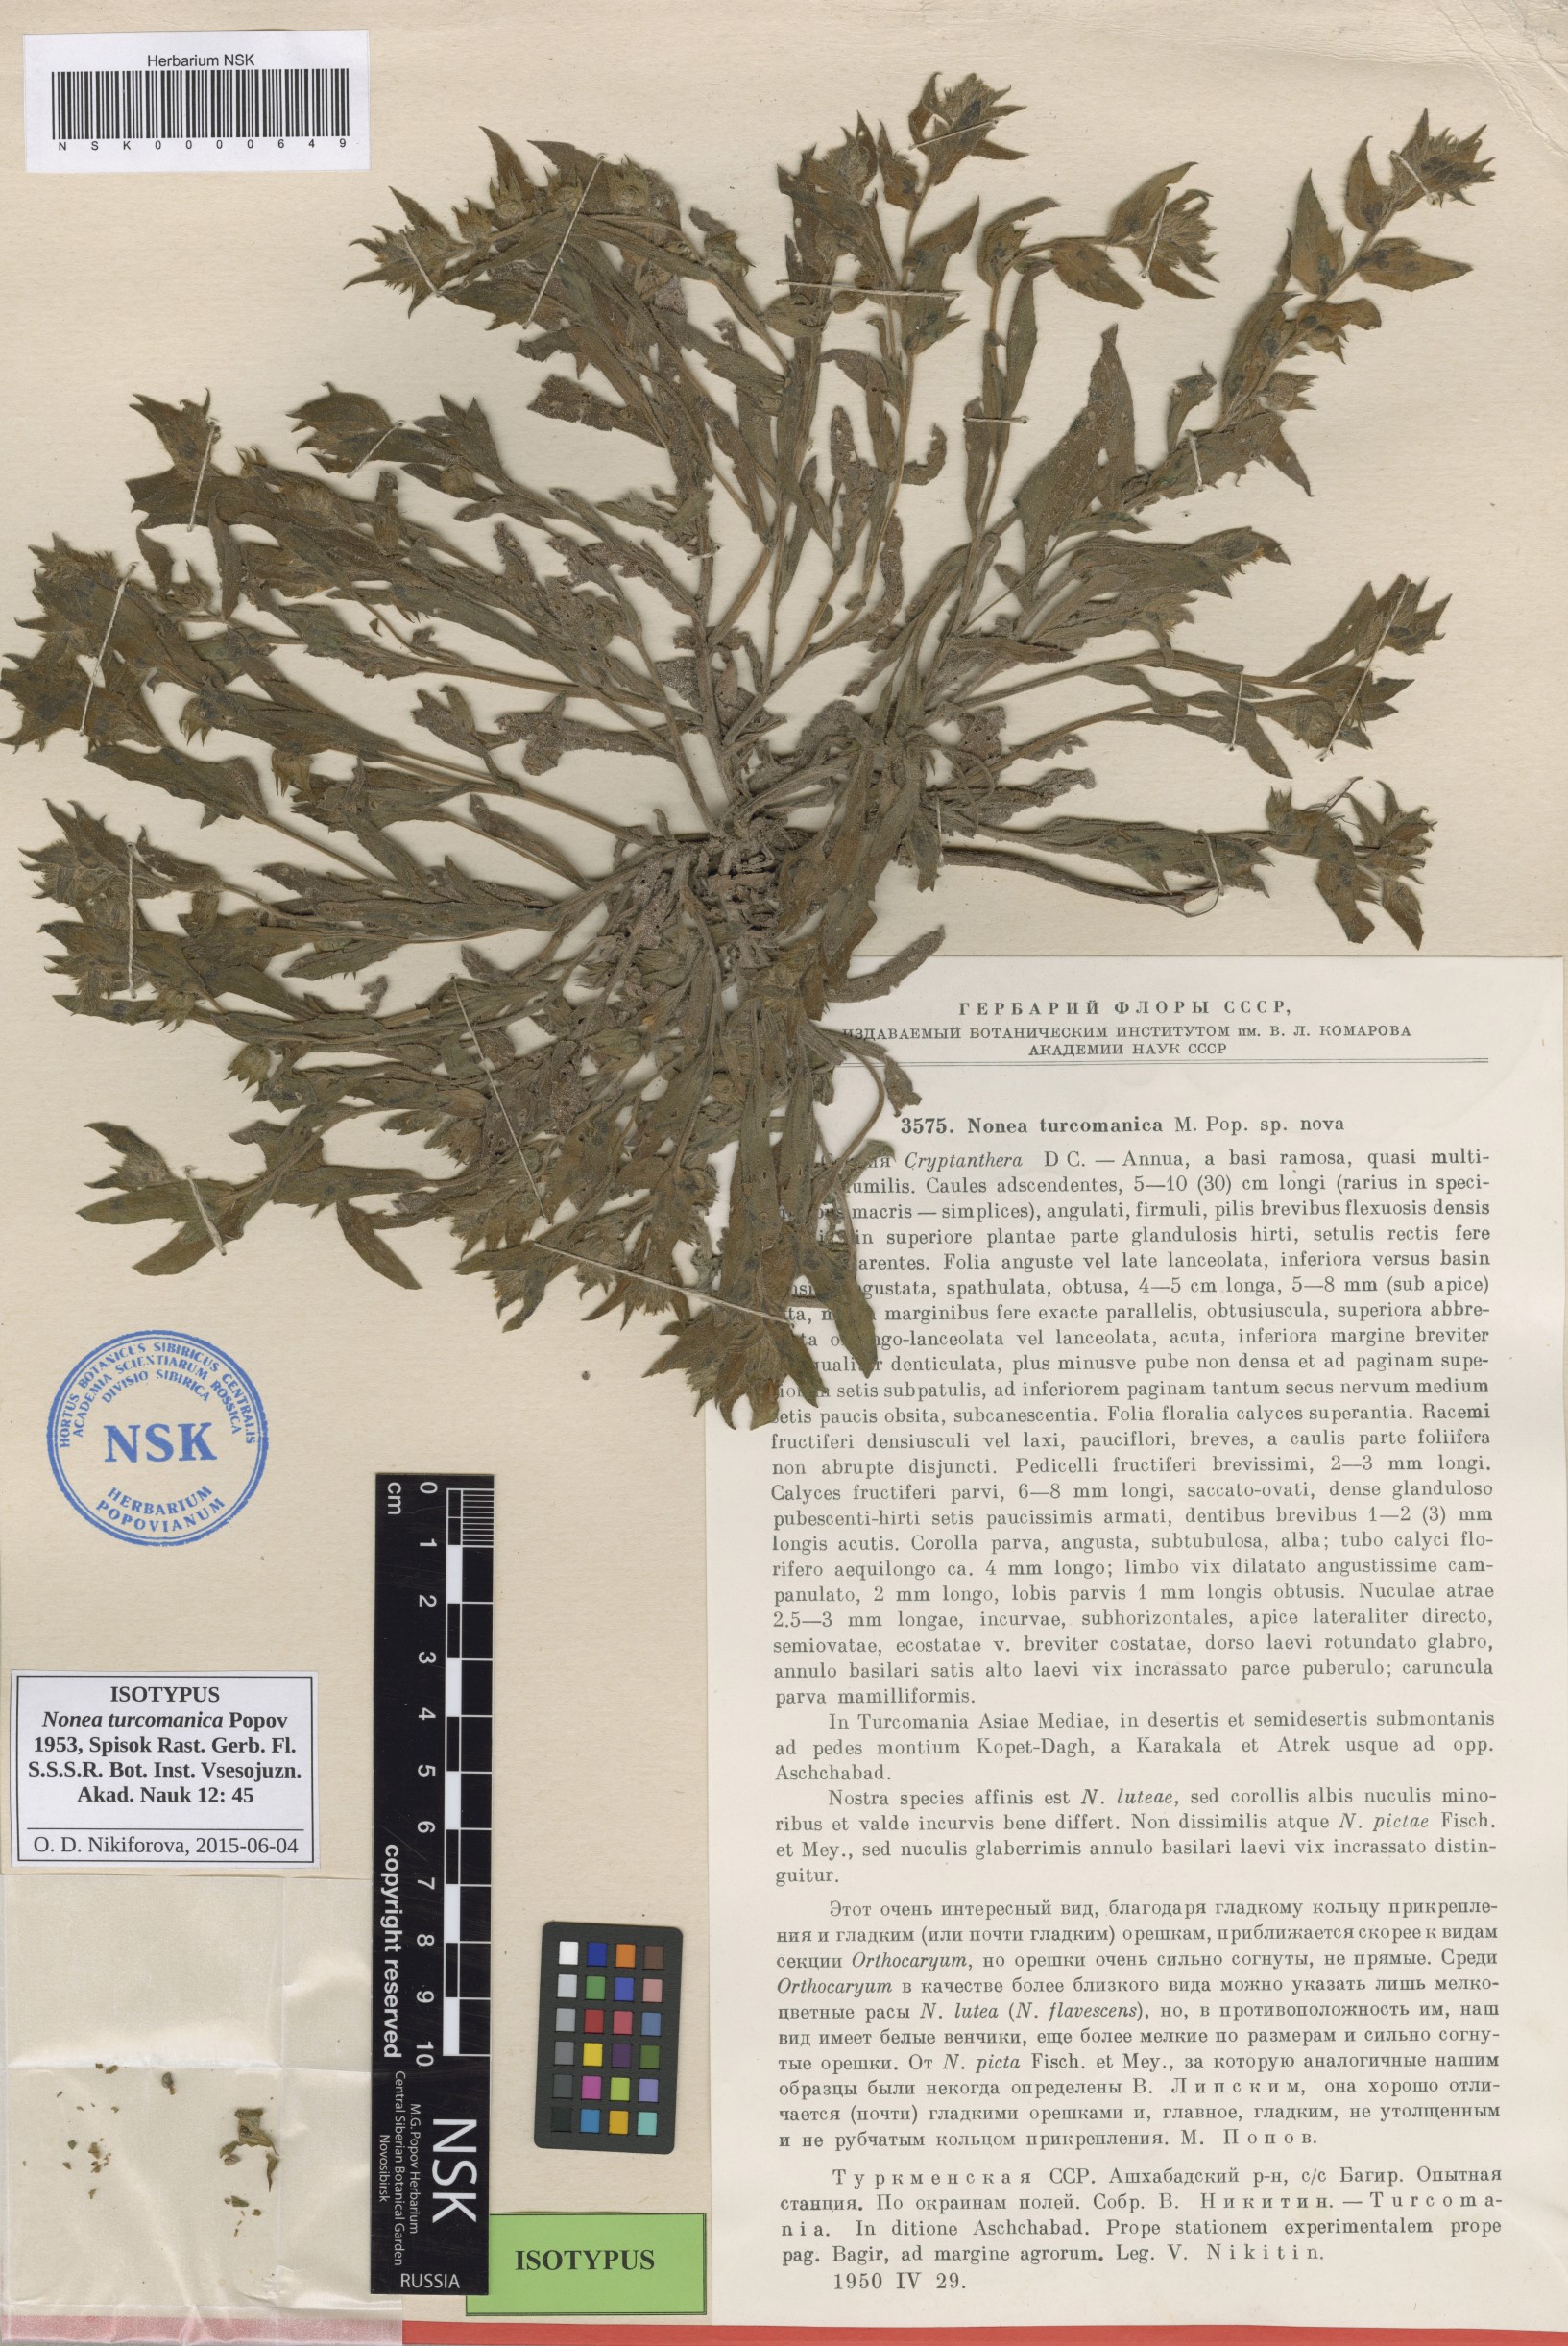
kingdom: Plantae
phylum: Tracheophyta
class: Magnoliopsida
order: Boraginales
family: Boraginaceae
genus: Nonea
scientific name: Nonea turcomanica
